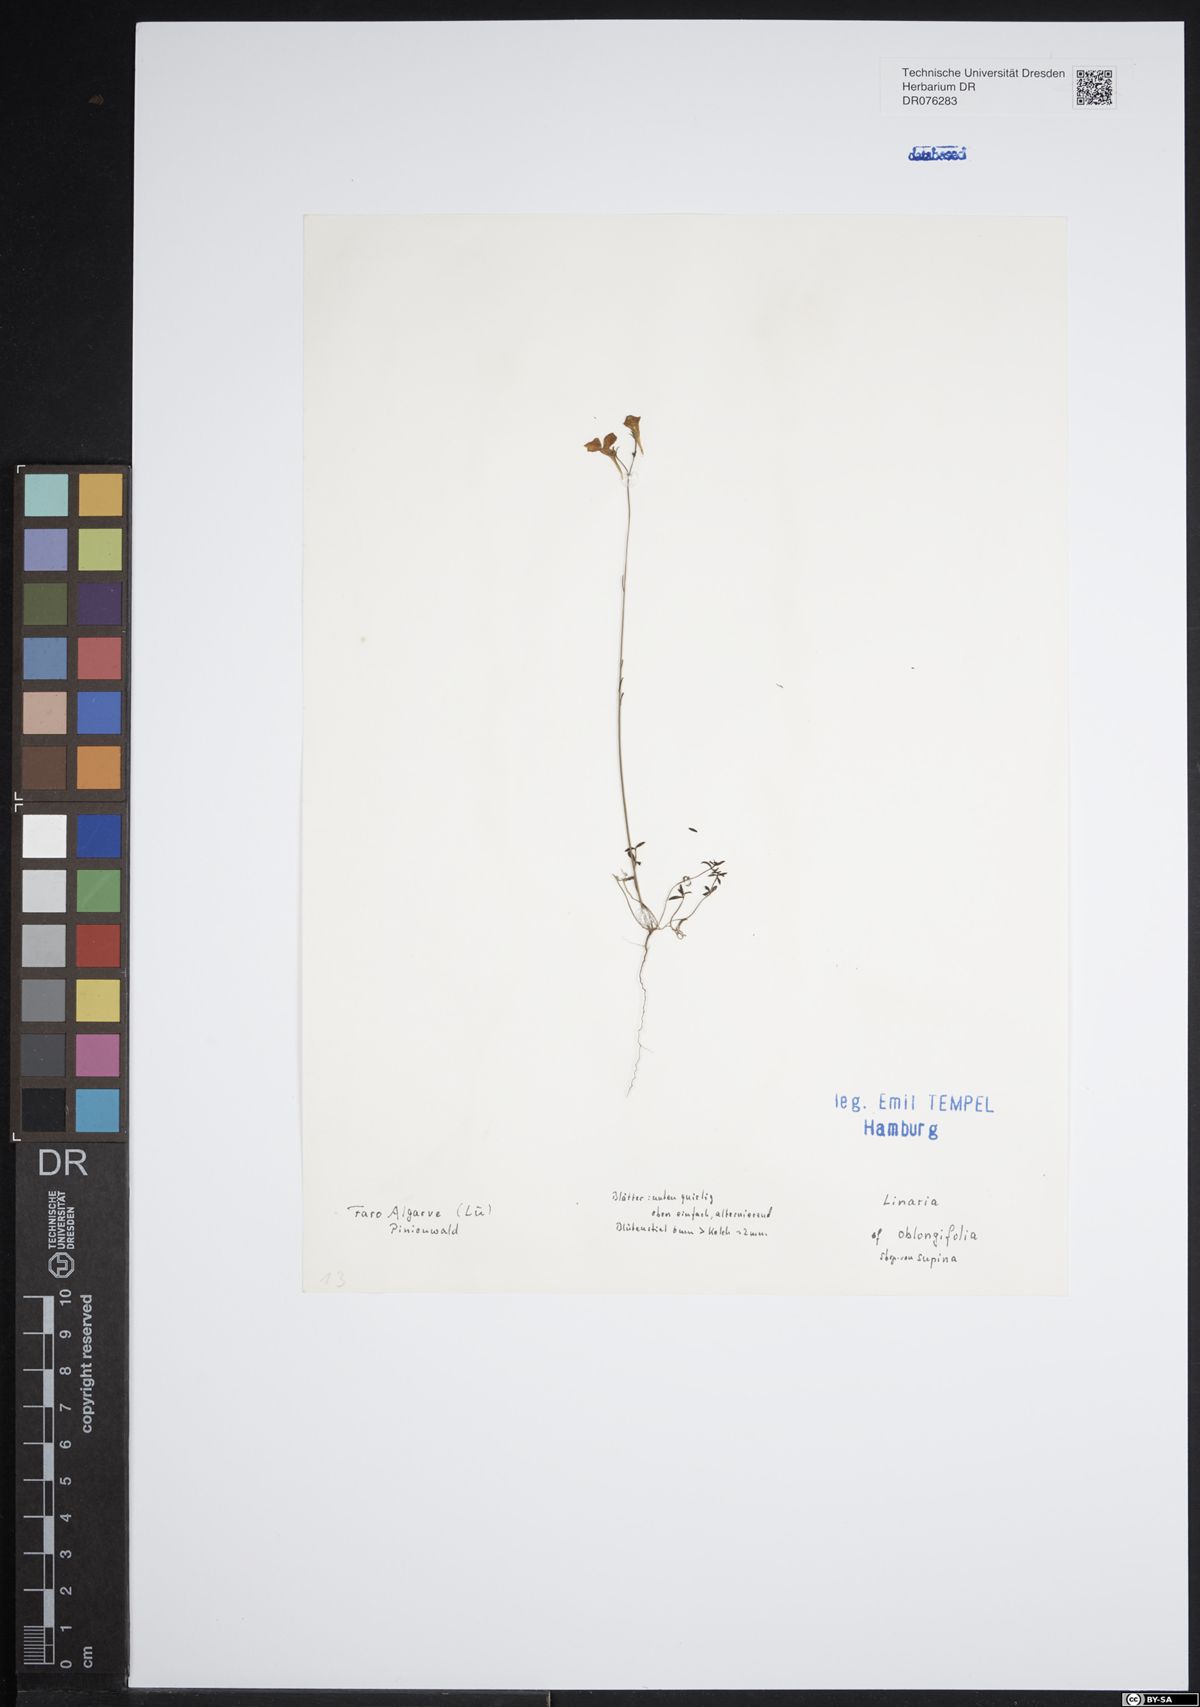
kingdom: Plantae
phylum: Tracheophyta
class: Magnoliopsida
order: Lamiales
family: Plantaginaceae
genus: Linaria
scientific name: Linaria oblongifolia
